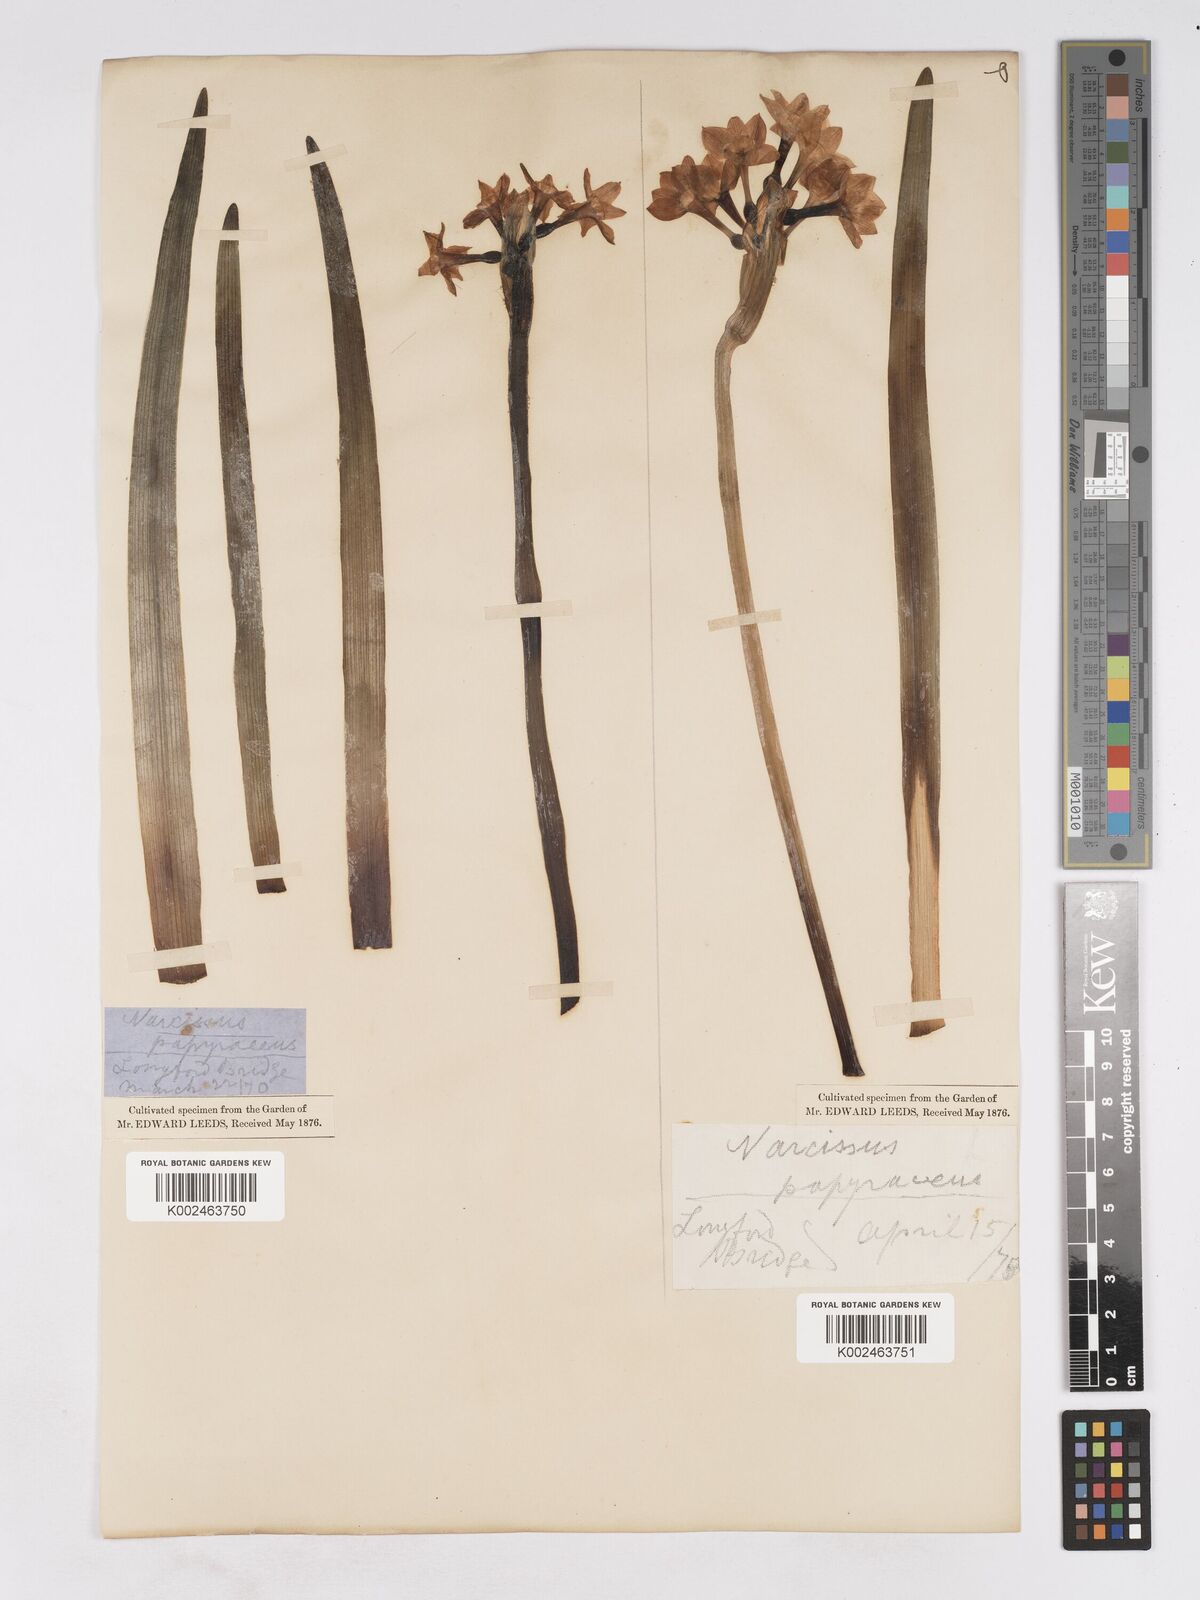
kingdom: Plantae
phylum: Tracheophyta
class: Liliopsida
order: Asparagales
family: Amaryllidaceae
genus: Narcissus
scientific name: Narcissus
